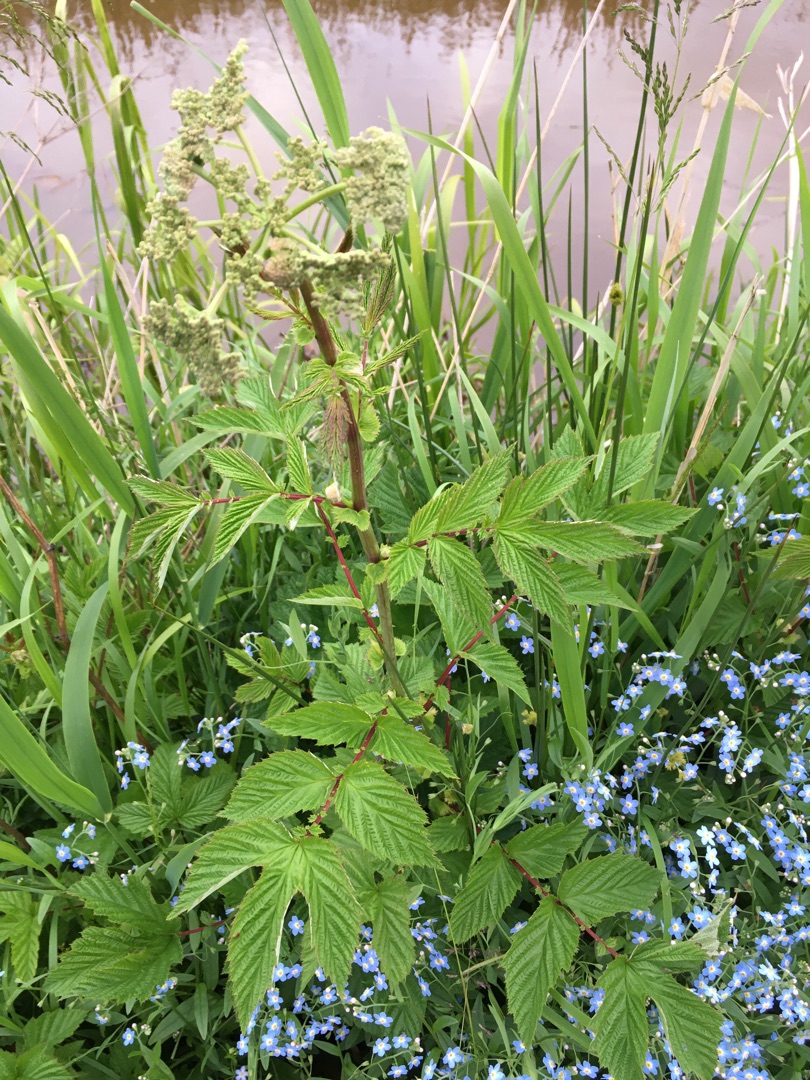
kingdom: Plantae
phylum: Tracheophyta
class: Magnoliopsida
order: Rosales
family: Rosaceae
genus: Filipendula
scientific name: Filipendula ulmaria
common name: Almindelig mjødurt
